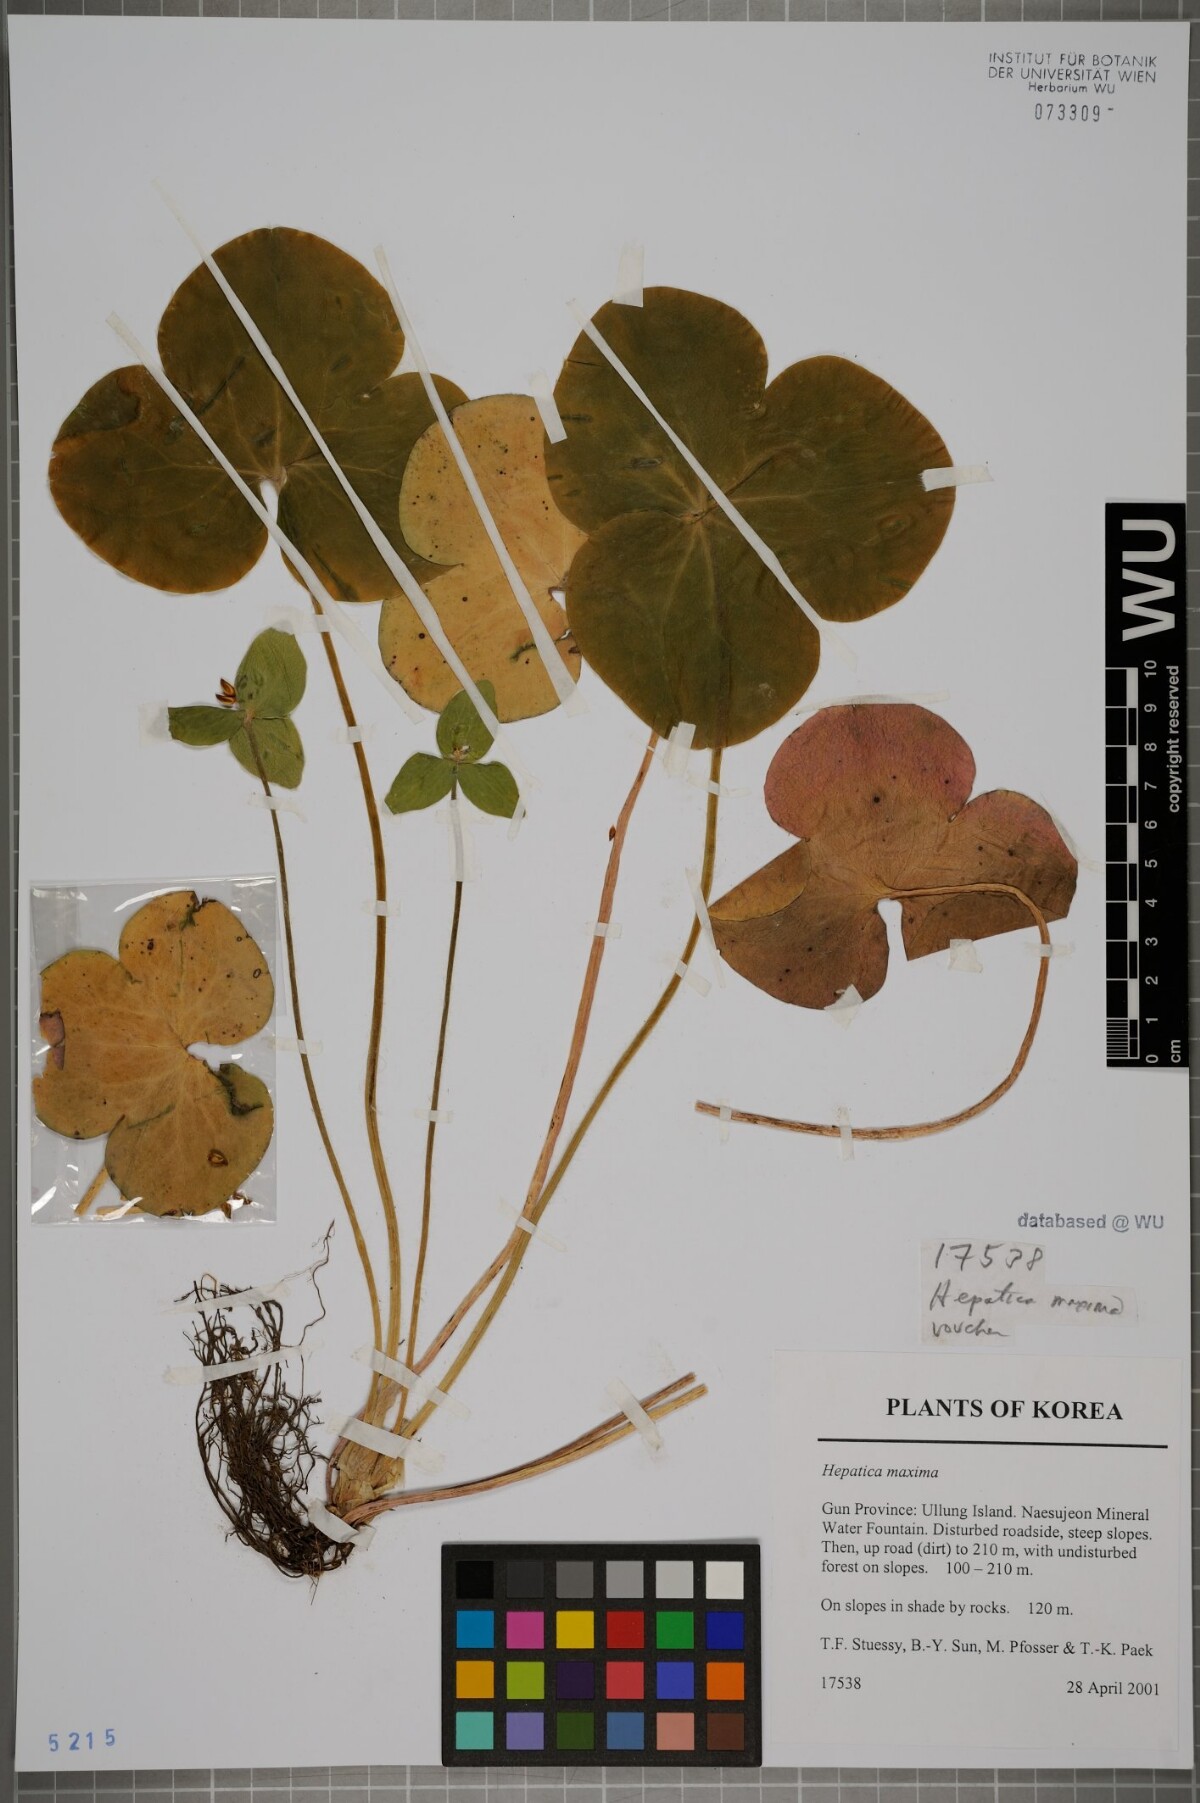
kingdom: Plantae
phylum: Tracheophyta
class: Magnoliopsida
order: Ranunculales
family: Ranunculaceae
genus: Hepatica
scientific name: Hepatica maxima
